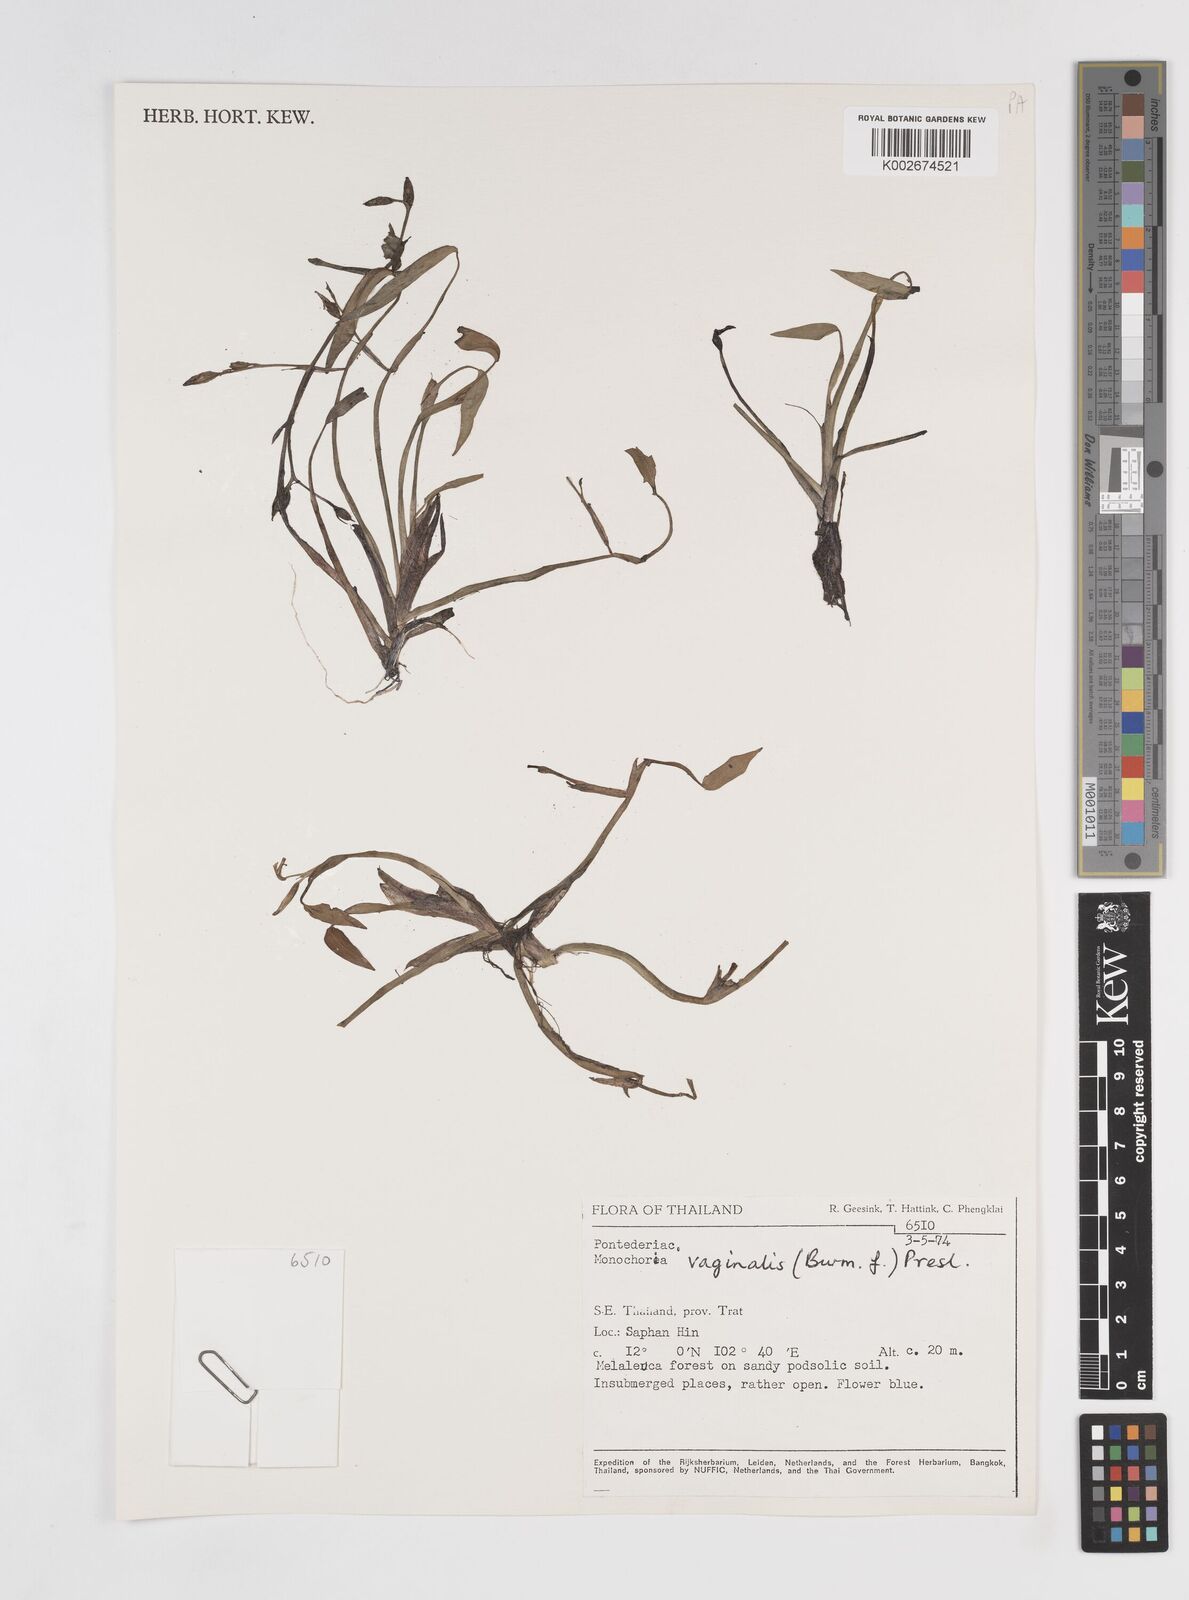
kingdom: Plantae
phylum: Tracheophyta
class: Liliopsida
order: Commelinales
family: Pontederiaceae
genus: Pontederia
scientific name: Pontederia vaginalis
